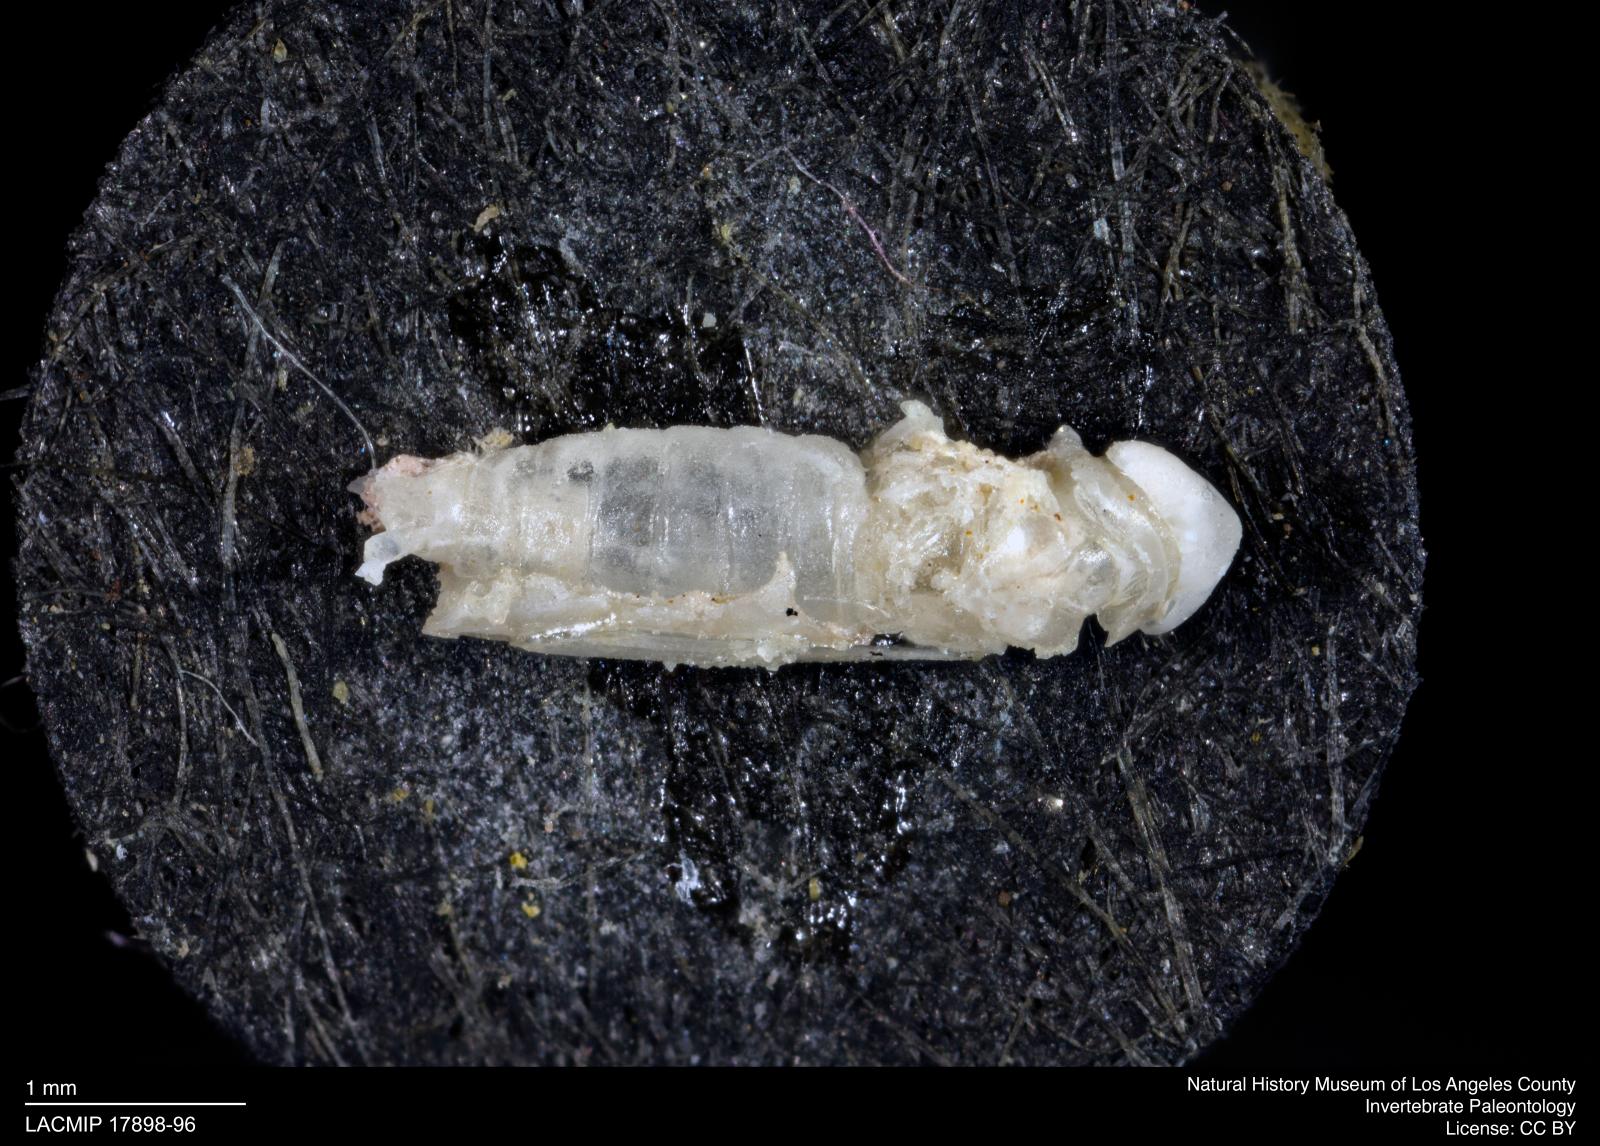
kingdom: Animalia
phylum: Arthropoda
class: Insecta
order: Hemiptera
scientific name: Hemiptera
